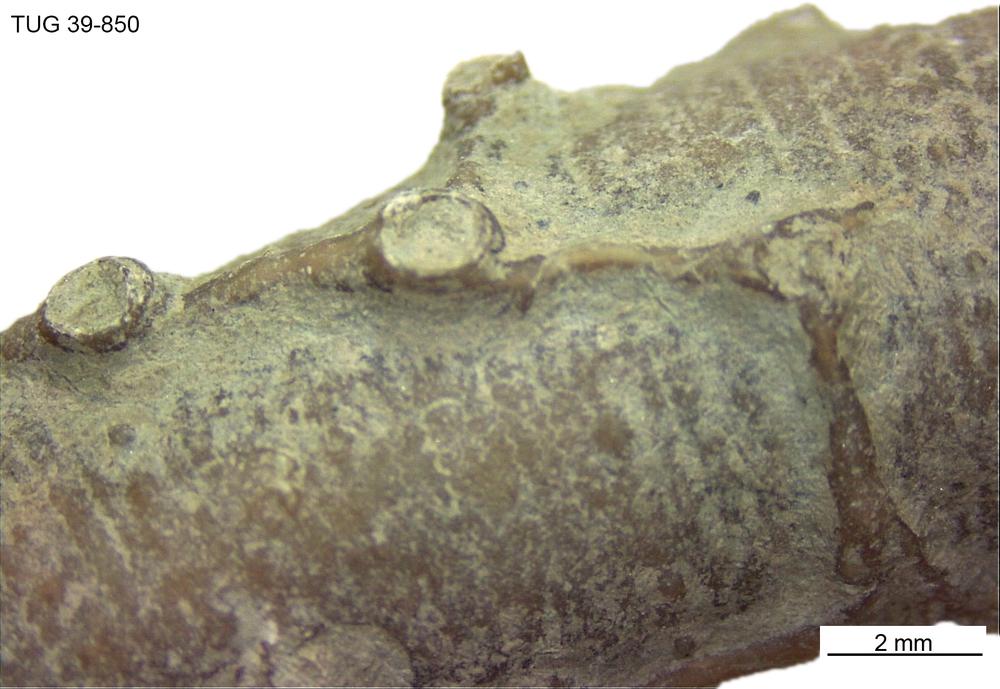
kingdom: Animalia
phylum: Cnidaria
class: Anthozoa
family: Auloporidae
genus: Aulopora
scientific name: Aulopora
